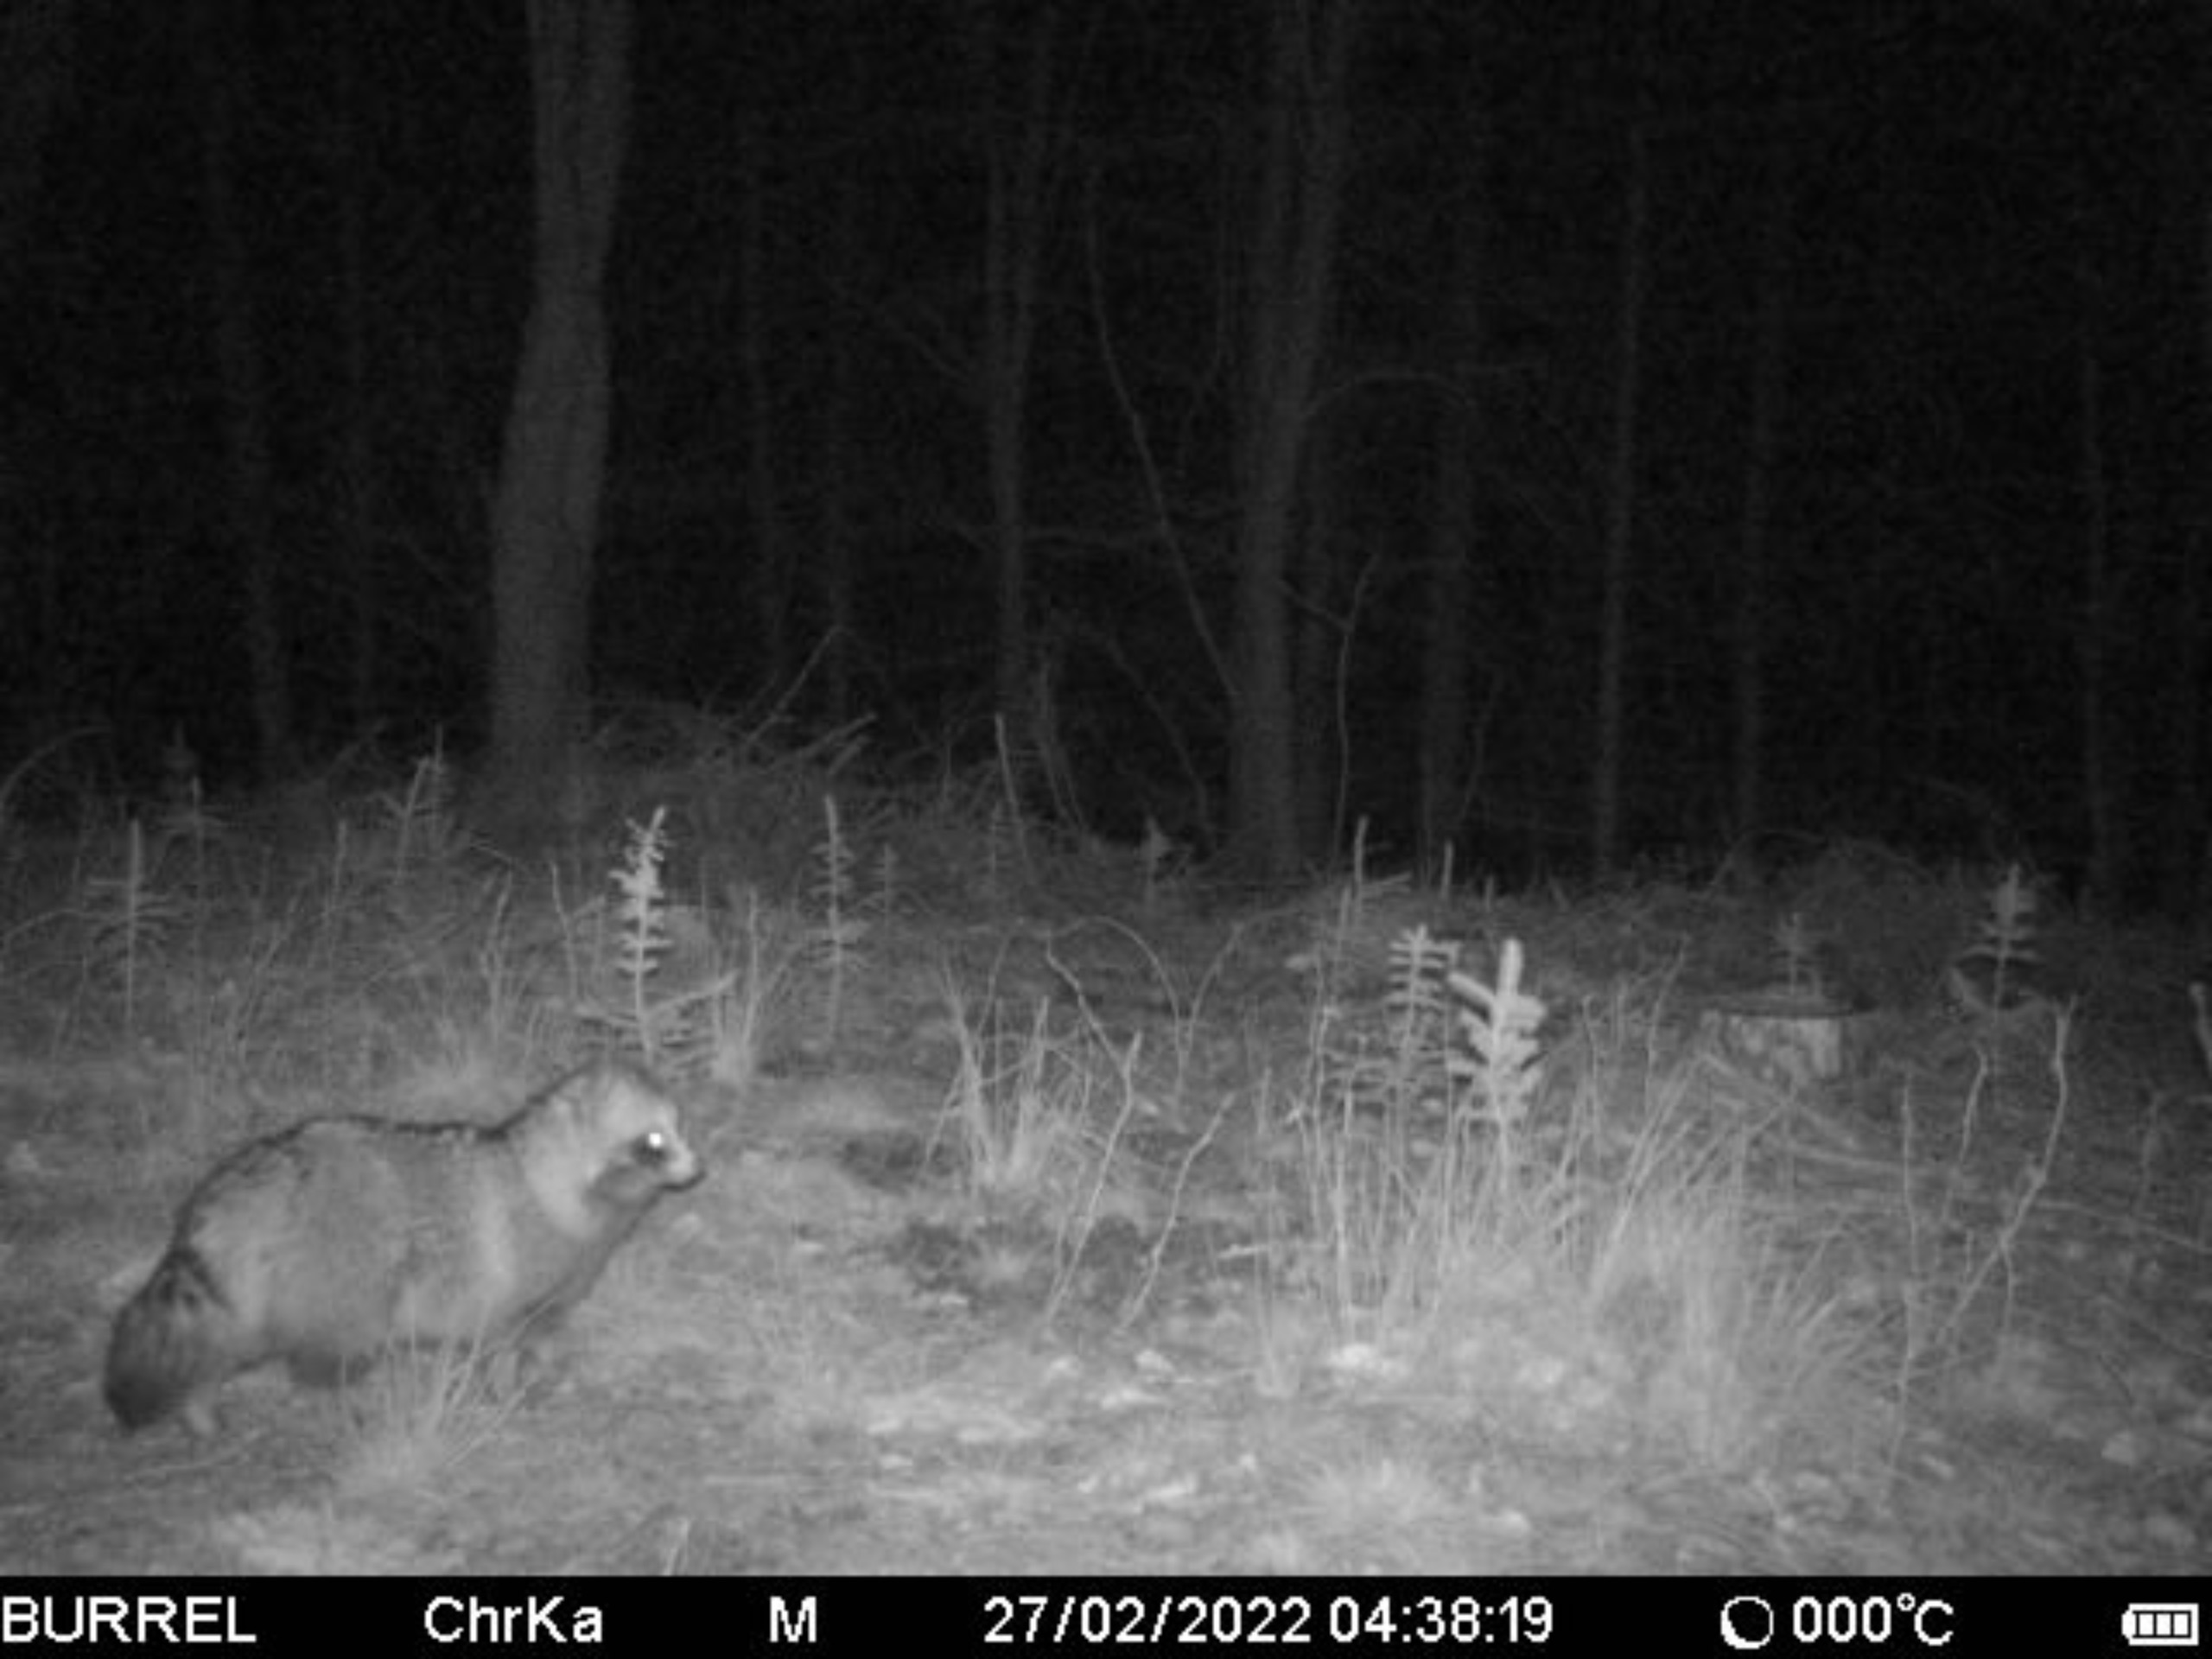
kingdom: Animalia
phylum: Chordata
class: Mammalia
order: Carnivora
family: Canidae
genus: Nyctereutes
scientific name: Nyctereutes procyonoides
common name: Mårhund
